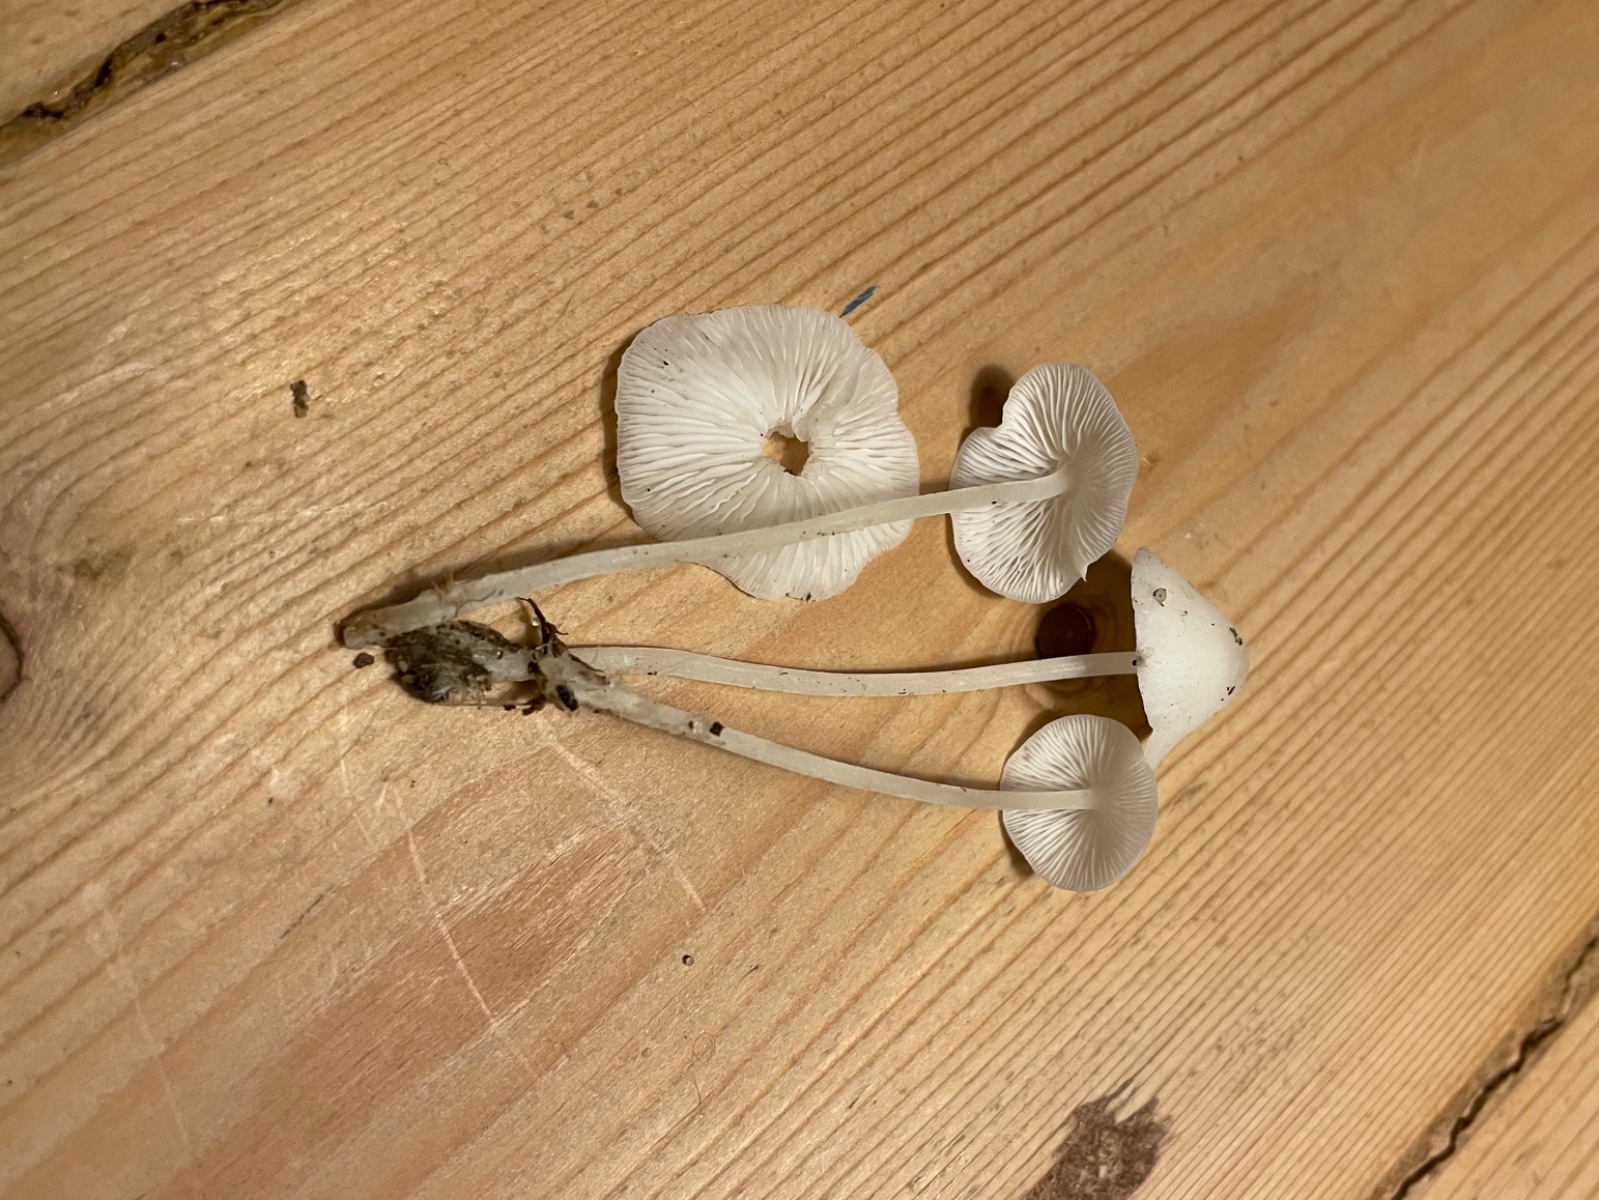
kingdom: Fungi
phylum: Basidiomycota
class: Agaricomycetes
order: Agaricales
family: Mycenaceae
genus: Hemimycena
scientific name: Hemimycena cucullata
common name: tætbladet huesvamp
